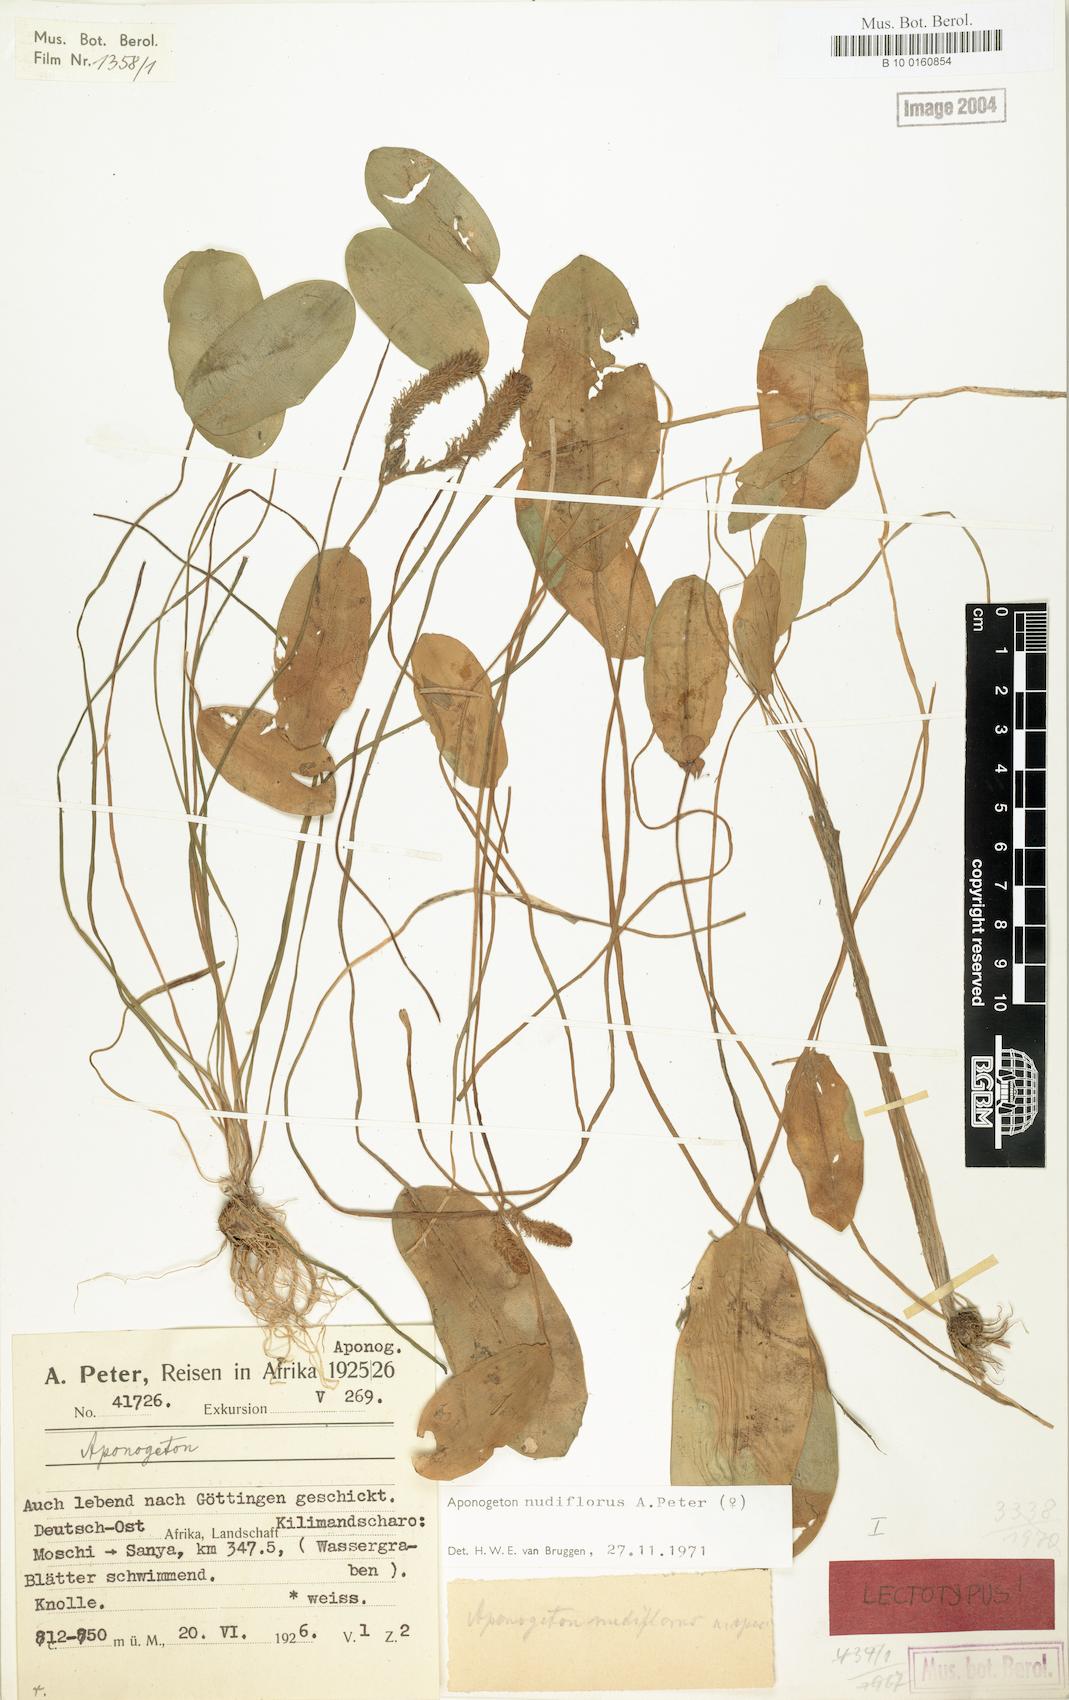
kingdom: Plantae
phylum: Tracheophyta
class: Liliopsida
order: Alismatales
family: Aponogetonaceae
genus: Aponogeton
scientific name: Aponogeton nudiflorus
